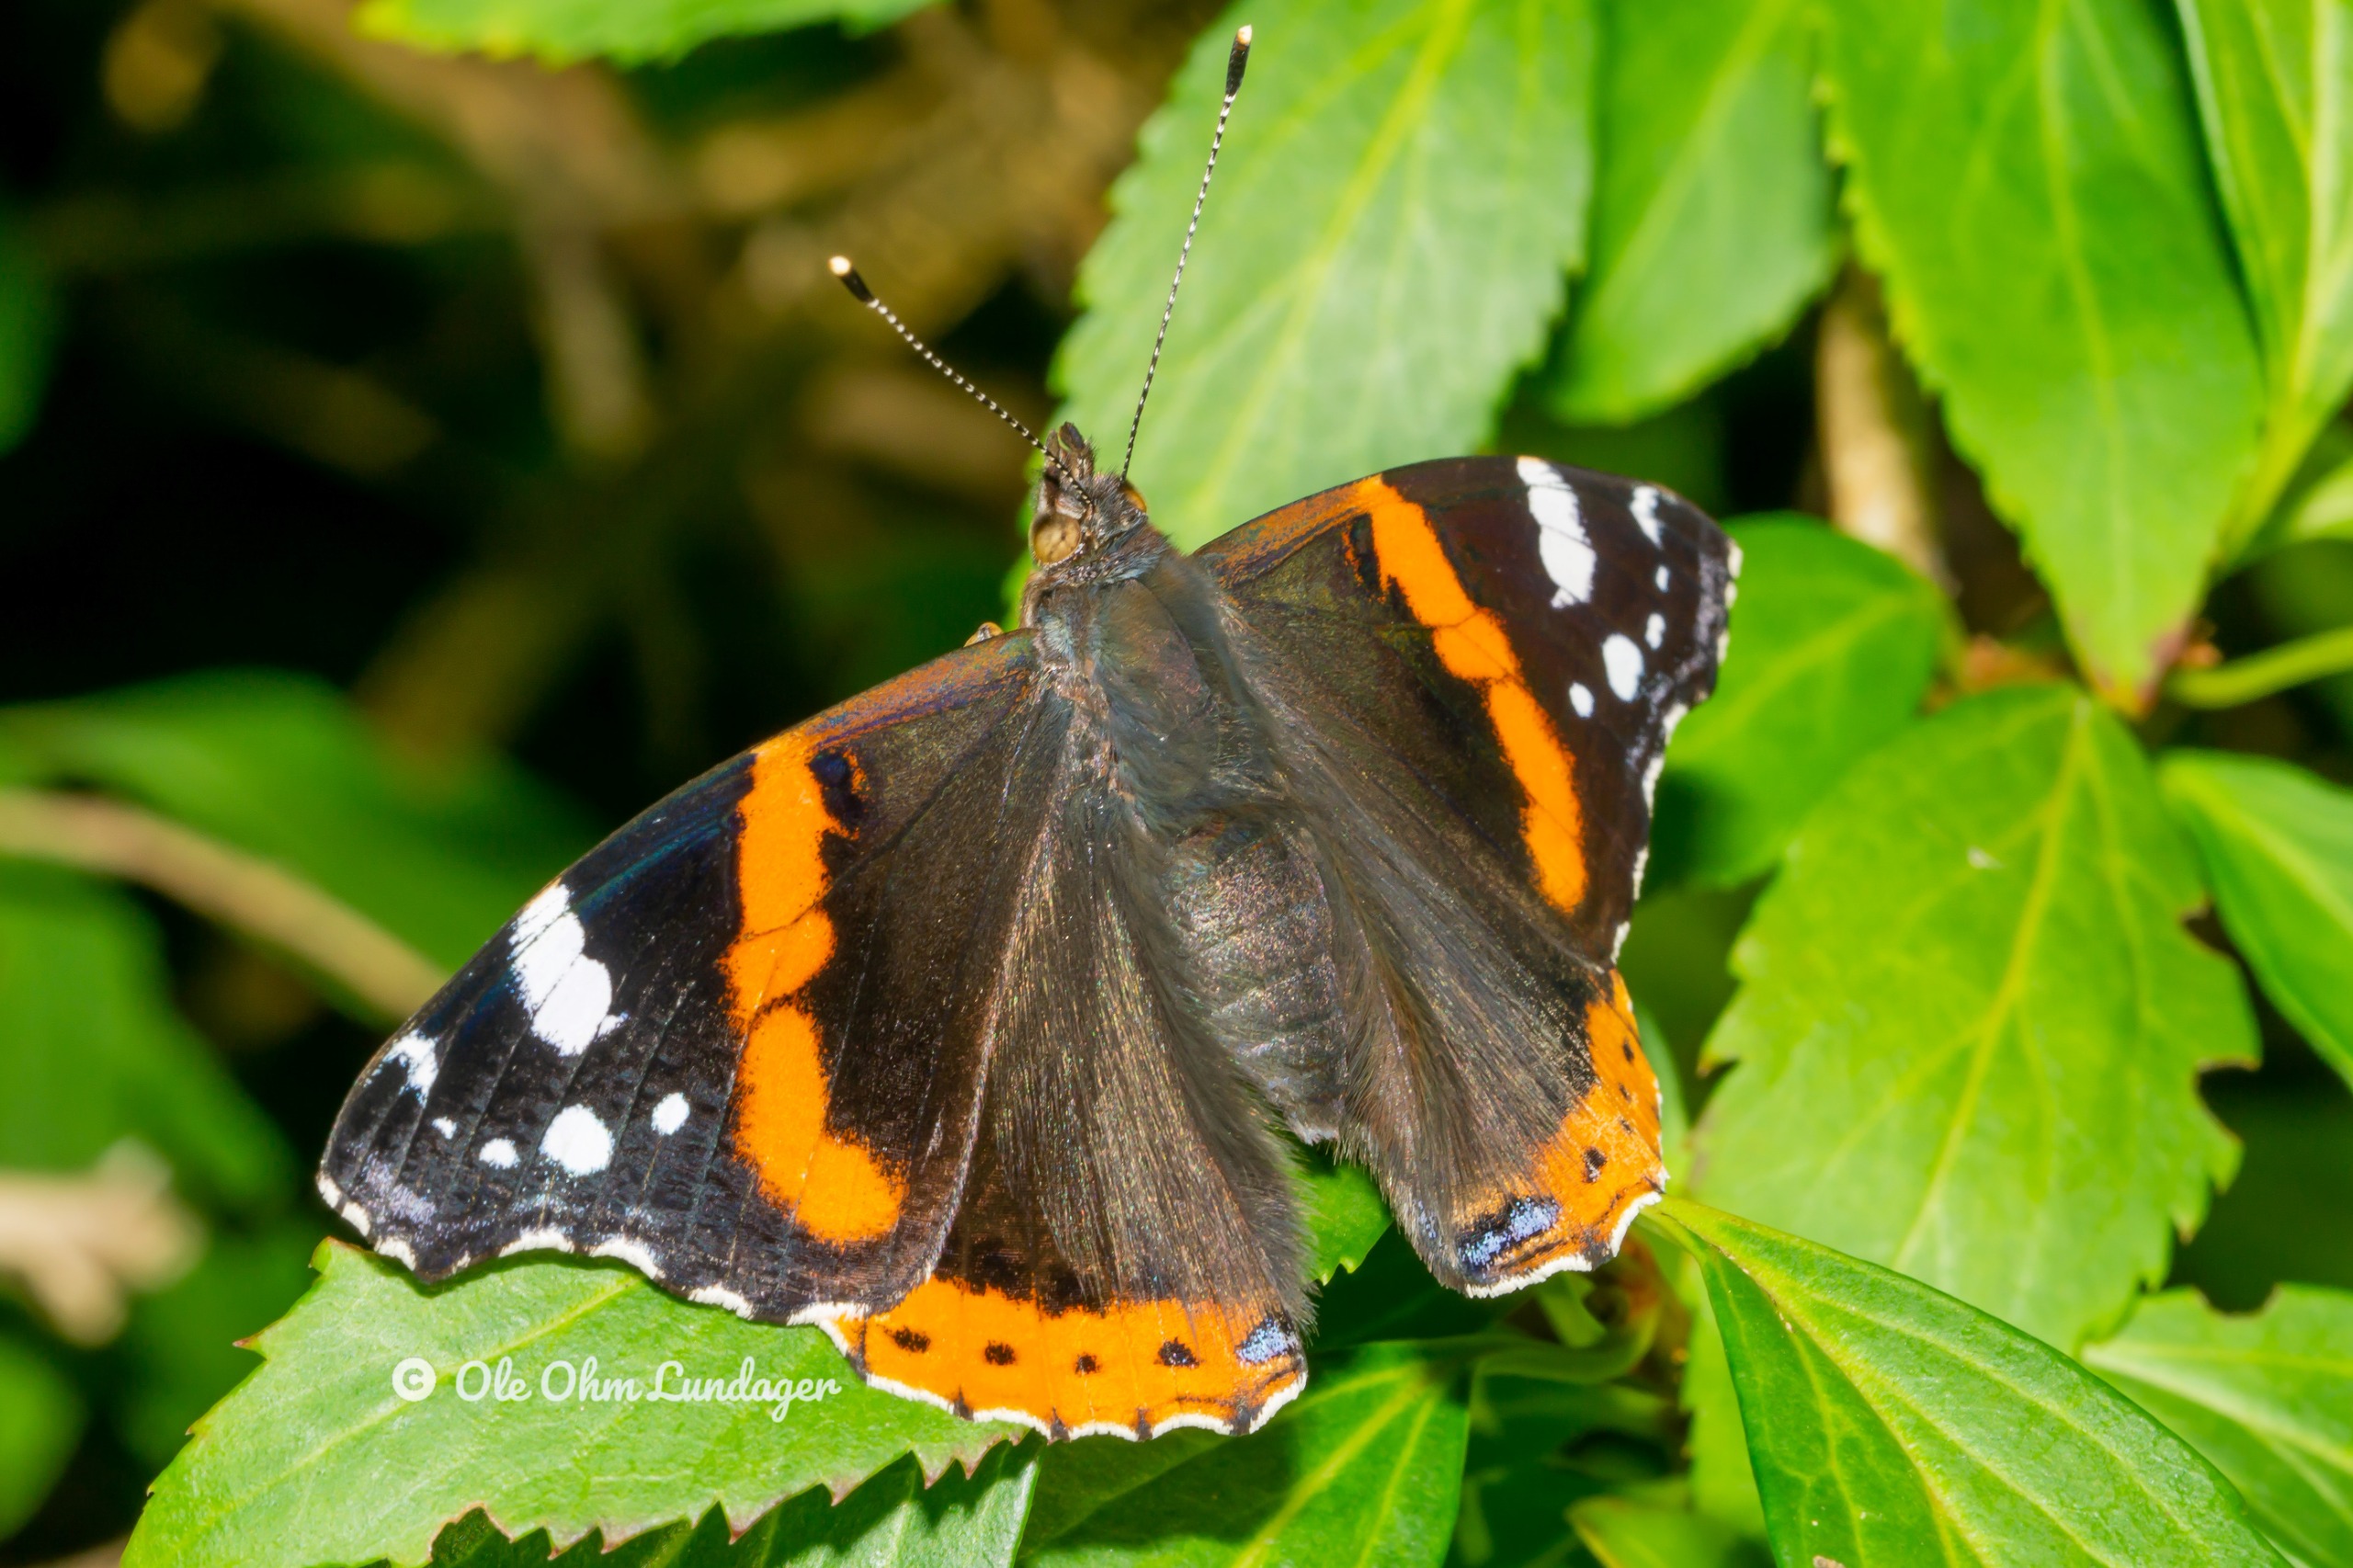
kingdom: Animalia
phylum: Arthropoda
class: Insecta
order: Lepidoptera
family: Nymphalidae
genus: Vanessa
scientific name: Vanessa atalanta
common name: Admiral
